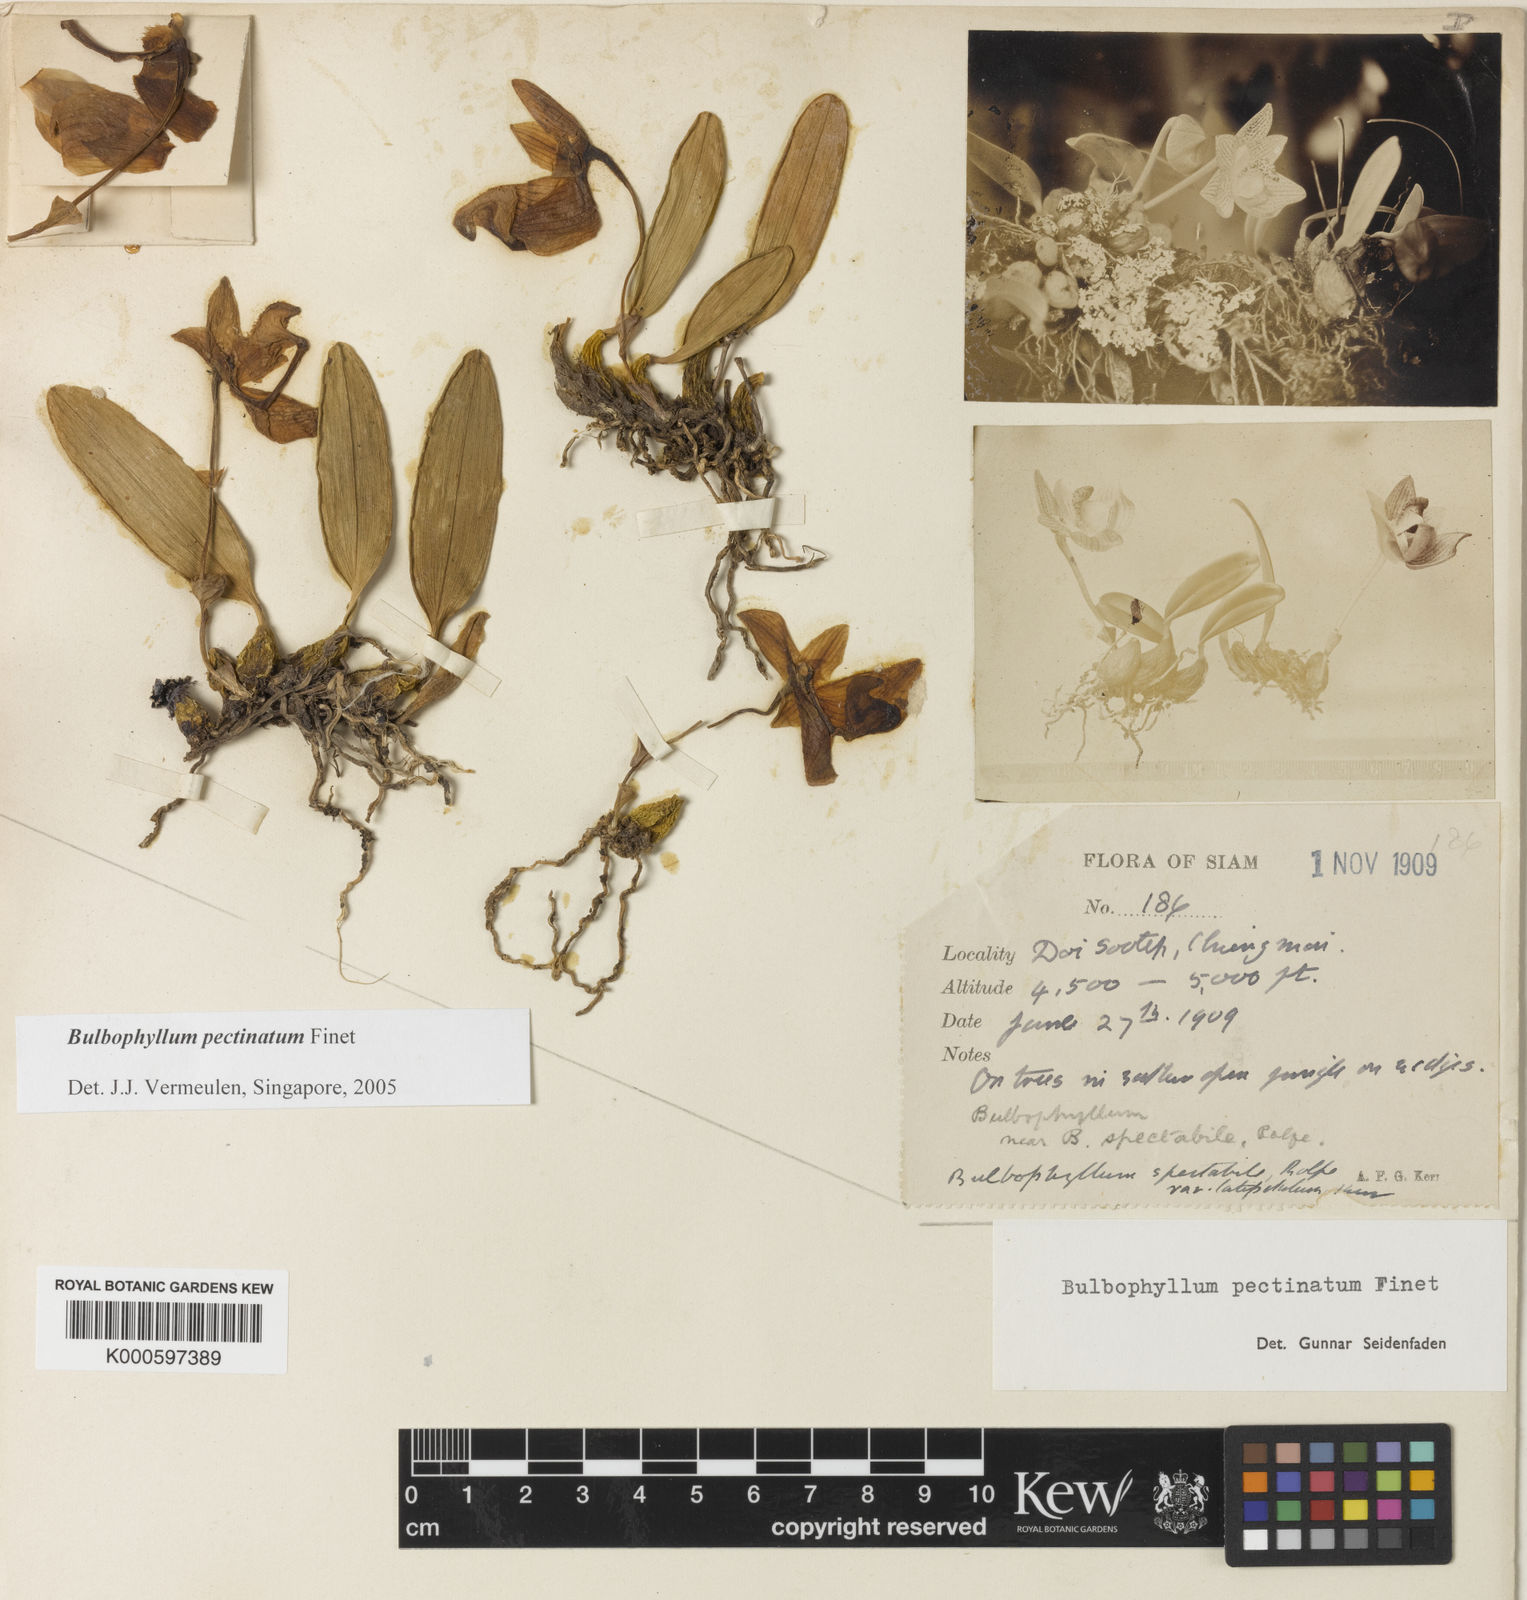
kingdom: Plantae
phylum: Tracheophyta
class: Liliopsida
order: Asparagales
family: Orchidaceae
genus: Bulbophyllum
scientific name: Bulbophyllum pectinatum
